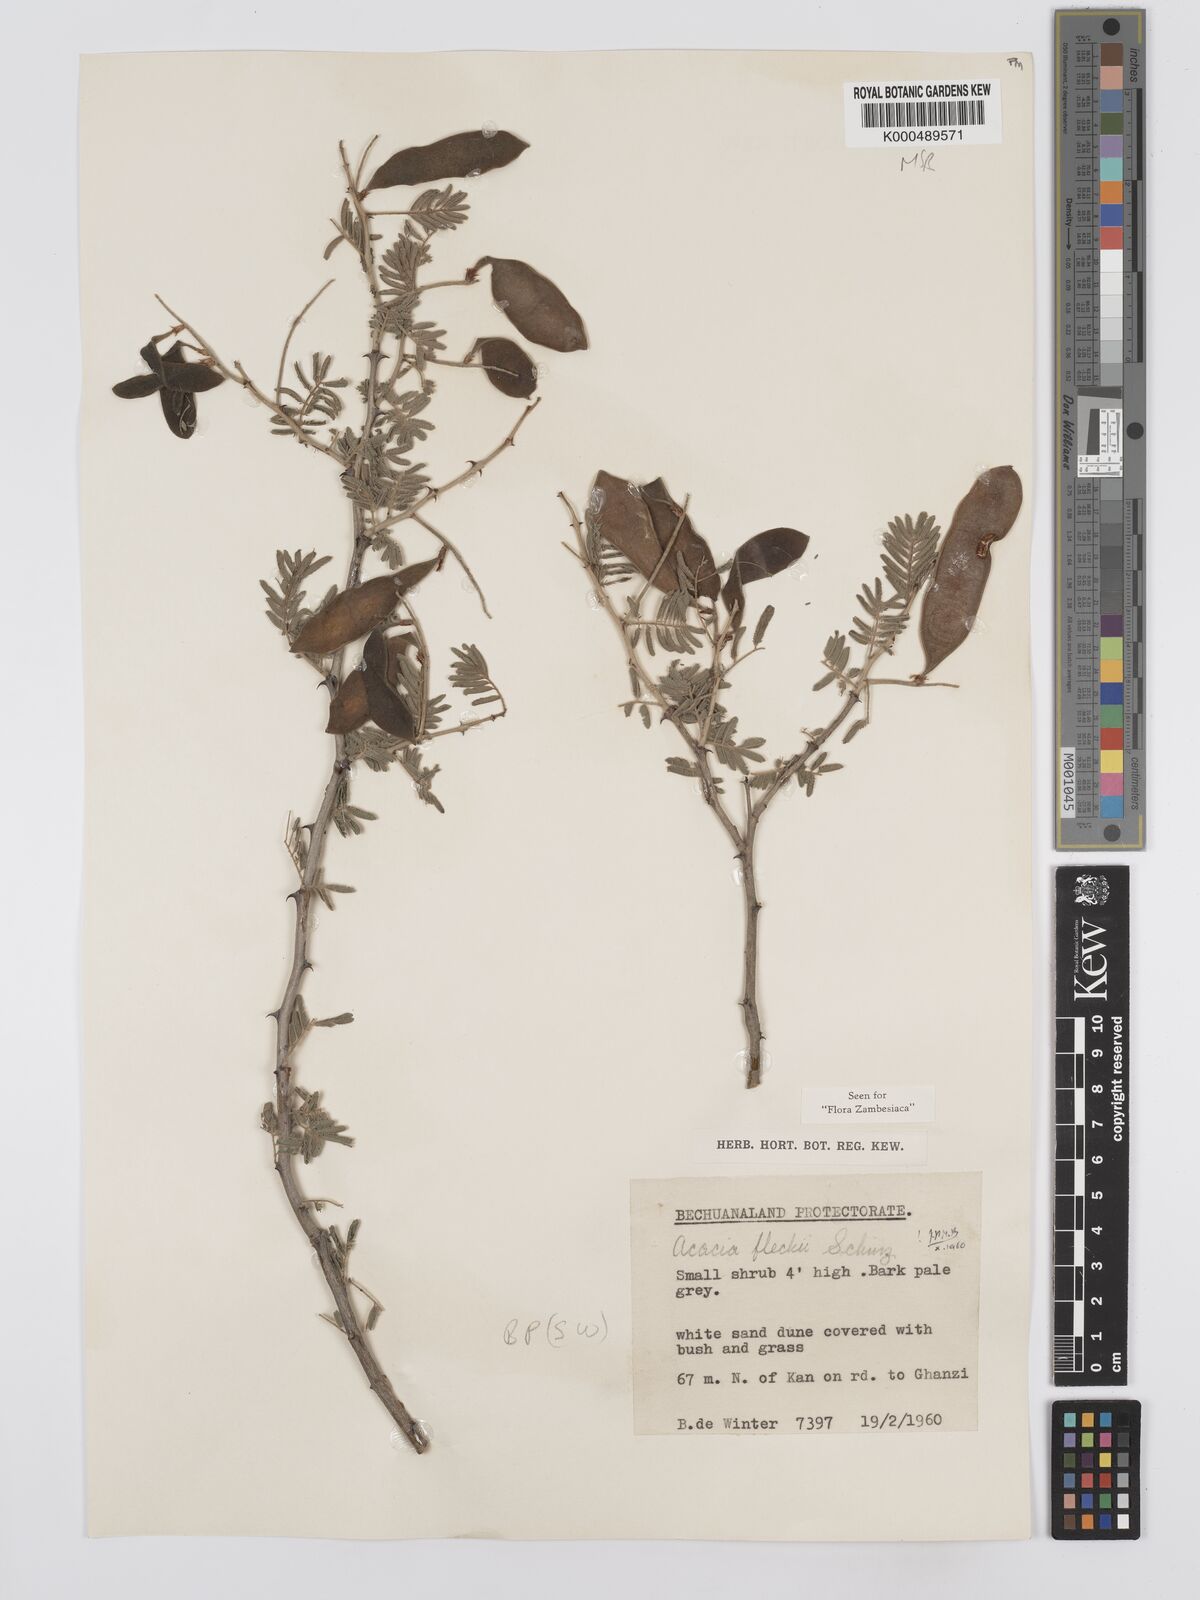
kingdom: Plantae
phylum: Tracheophyta
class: Magnoliopsida
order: Fabales
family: Fabaceae
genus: Senegalia
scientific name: Senegalia fleckii
